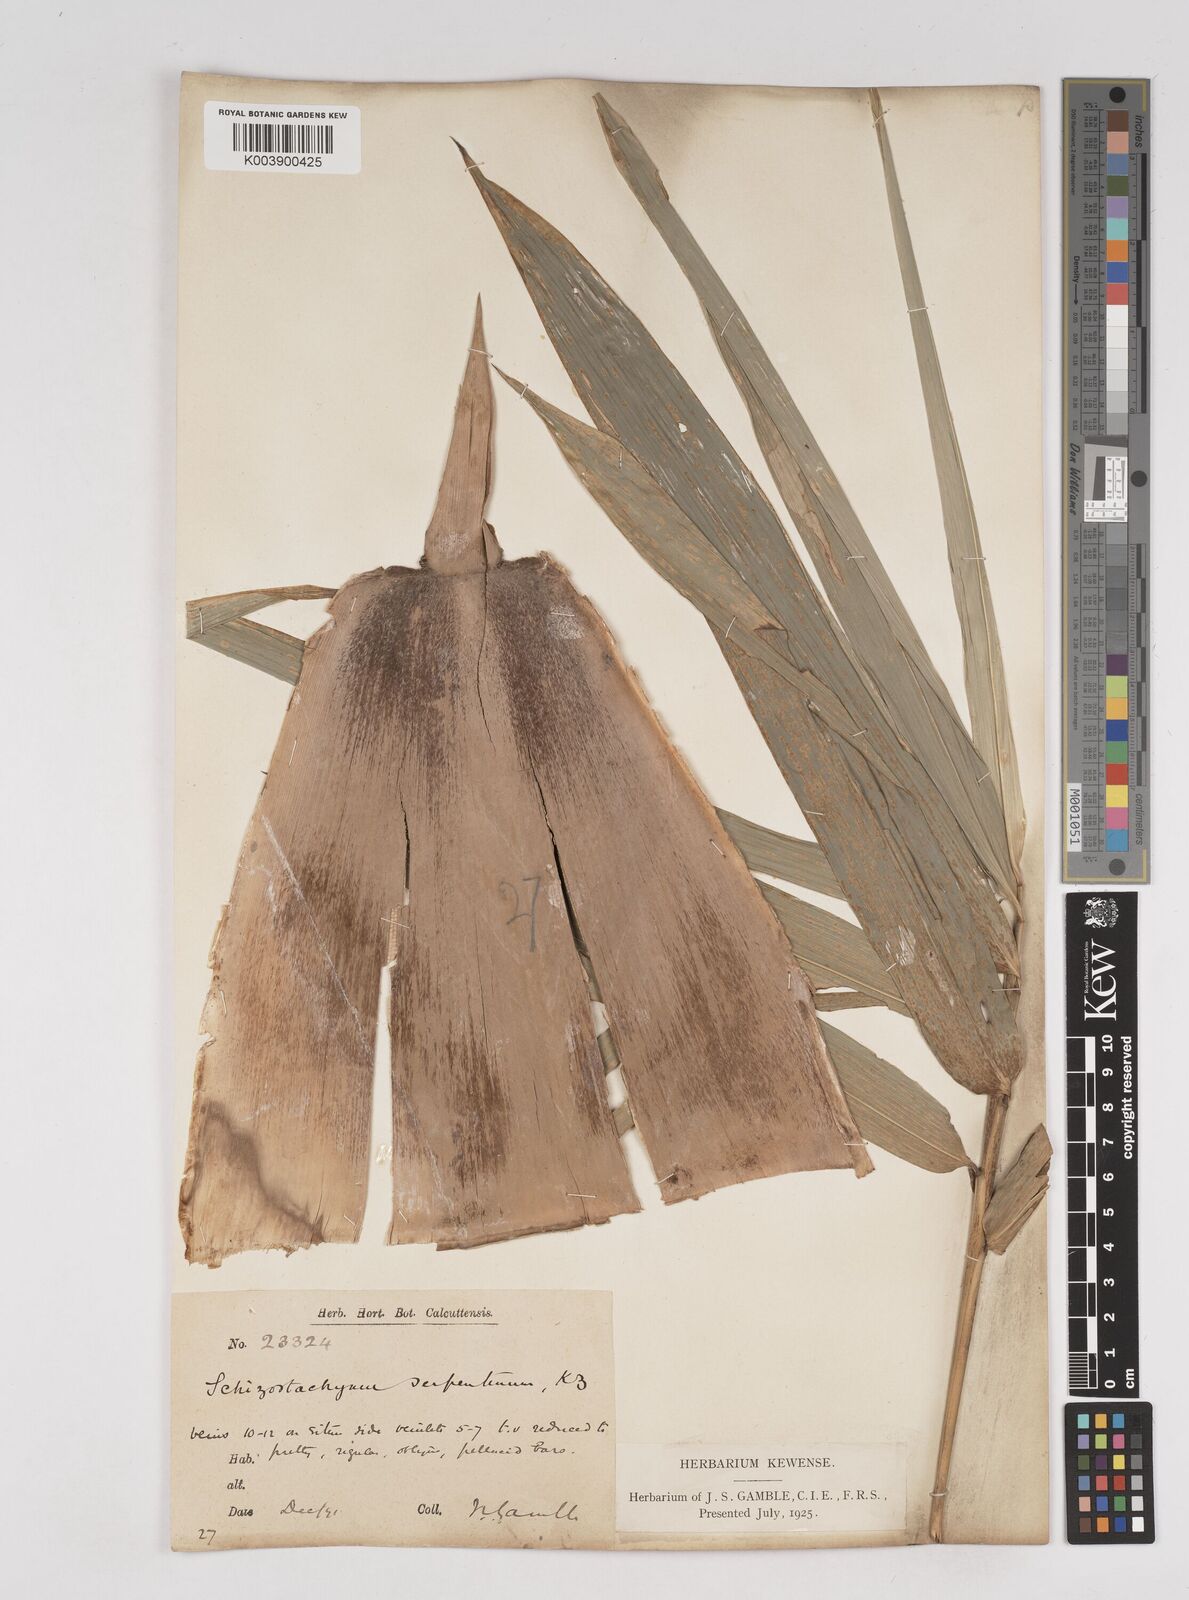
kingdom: Plantae
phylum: Tracheophyta
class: Liliopsida
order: Poales
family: Poaceae
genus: Gigantochloa
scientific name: Gigantochloa nigrociliata
